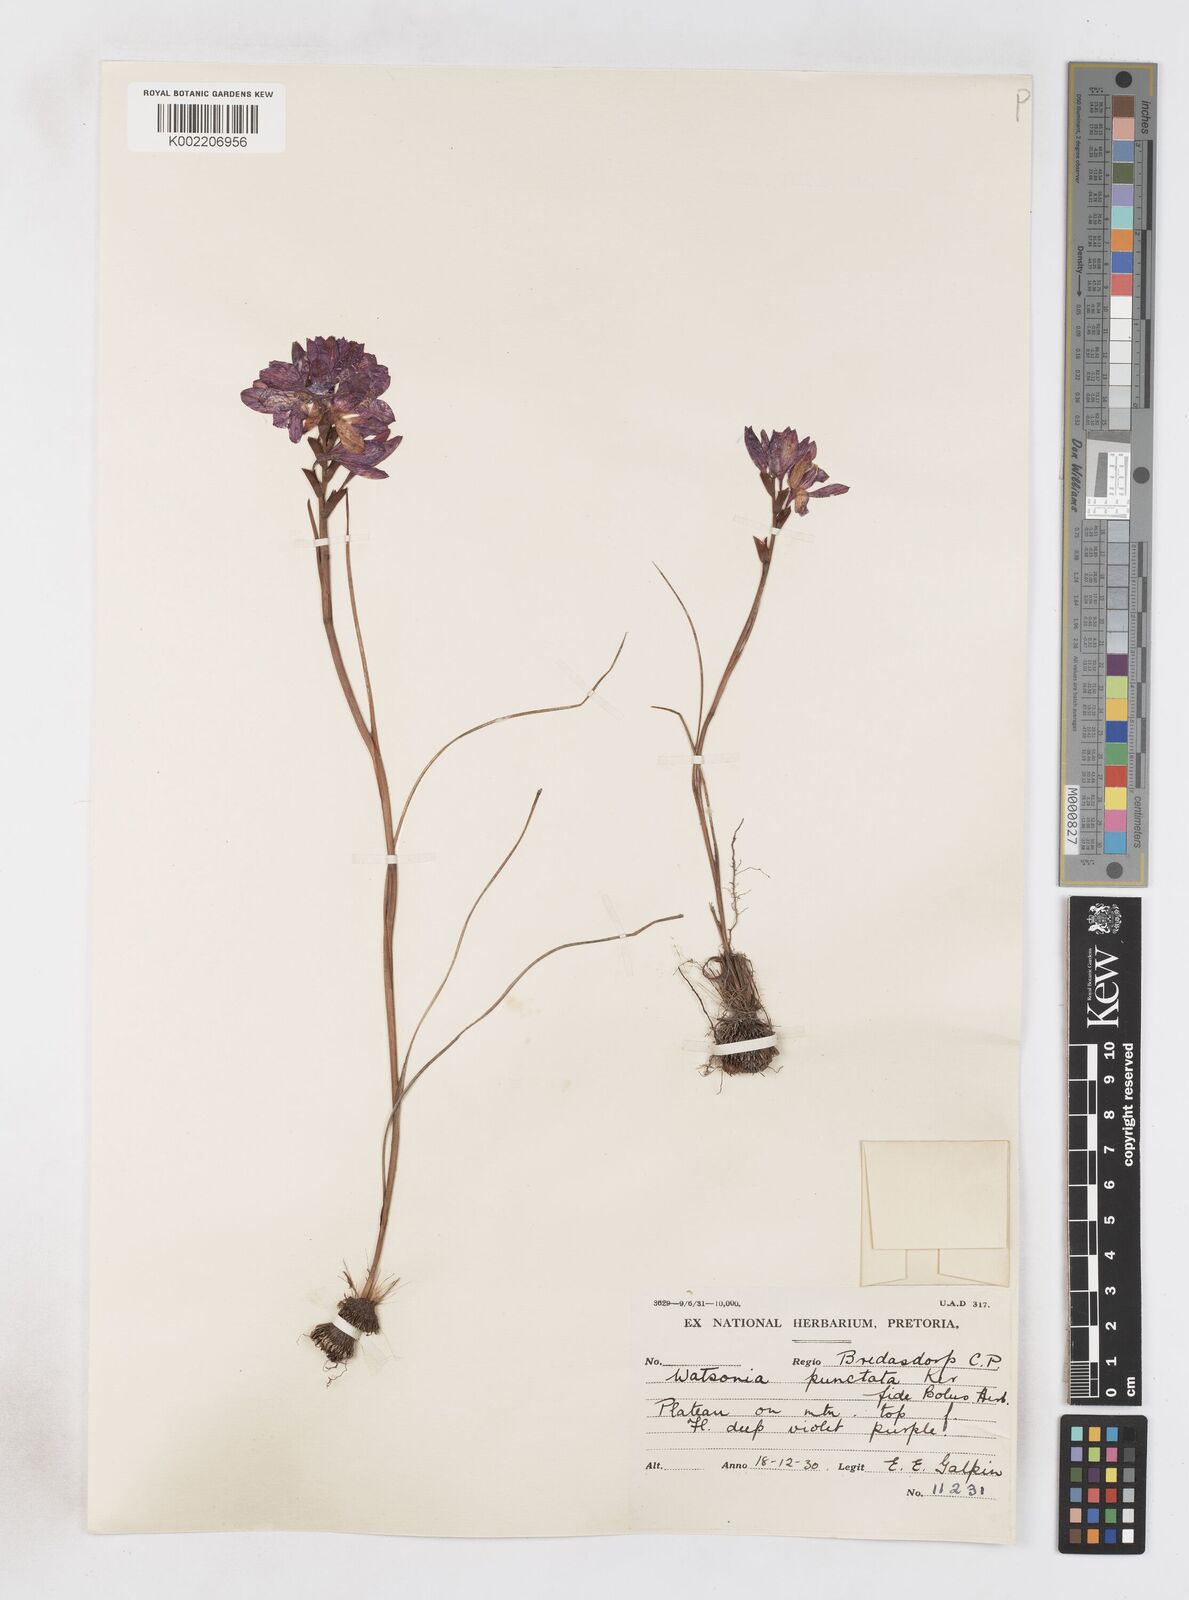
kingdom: Plantae
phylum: Tracheophyta
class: Liliopsida
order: Asparagales
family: Iridaceae
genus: Thereianthus
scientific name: Thereianthus spicatus
